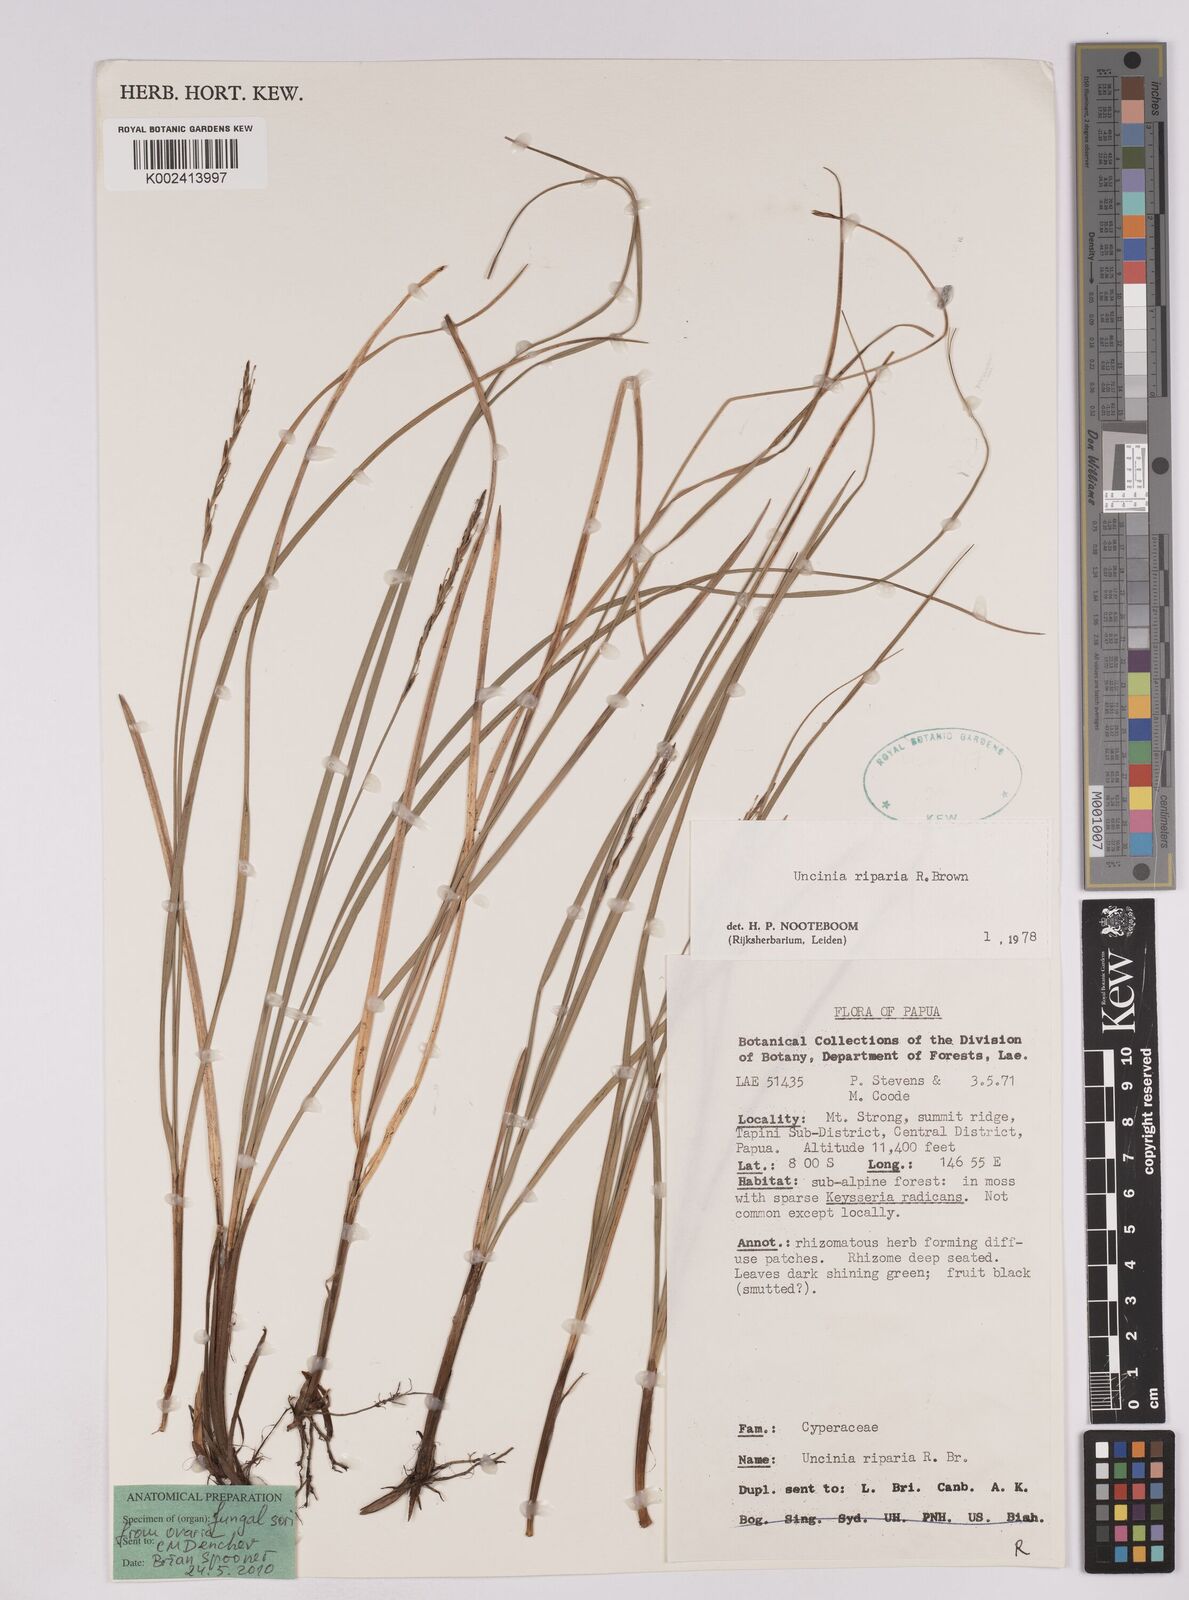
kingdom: Plantae
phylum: Tracheophyta
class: Liliopsida
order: Poales
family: Cyperaceae
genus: Carex
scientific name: Carex sclerophylla
